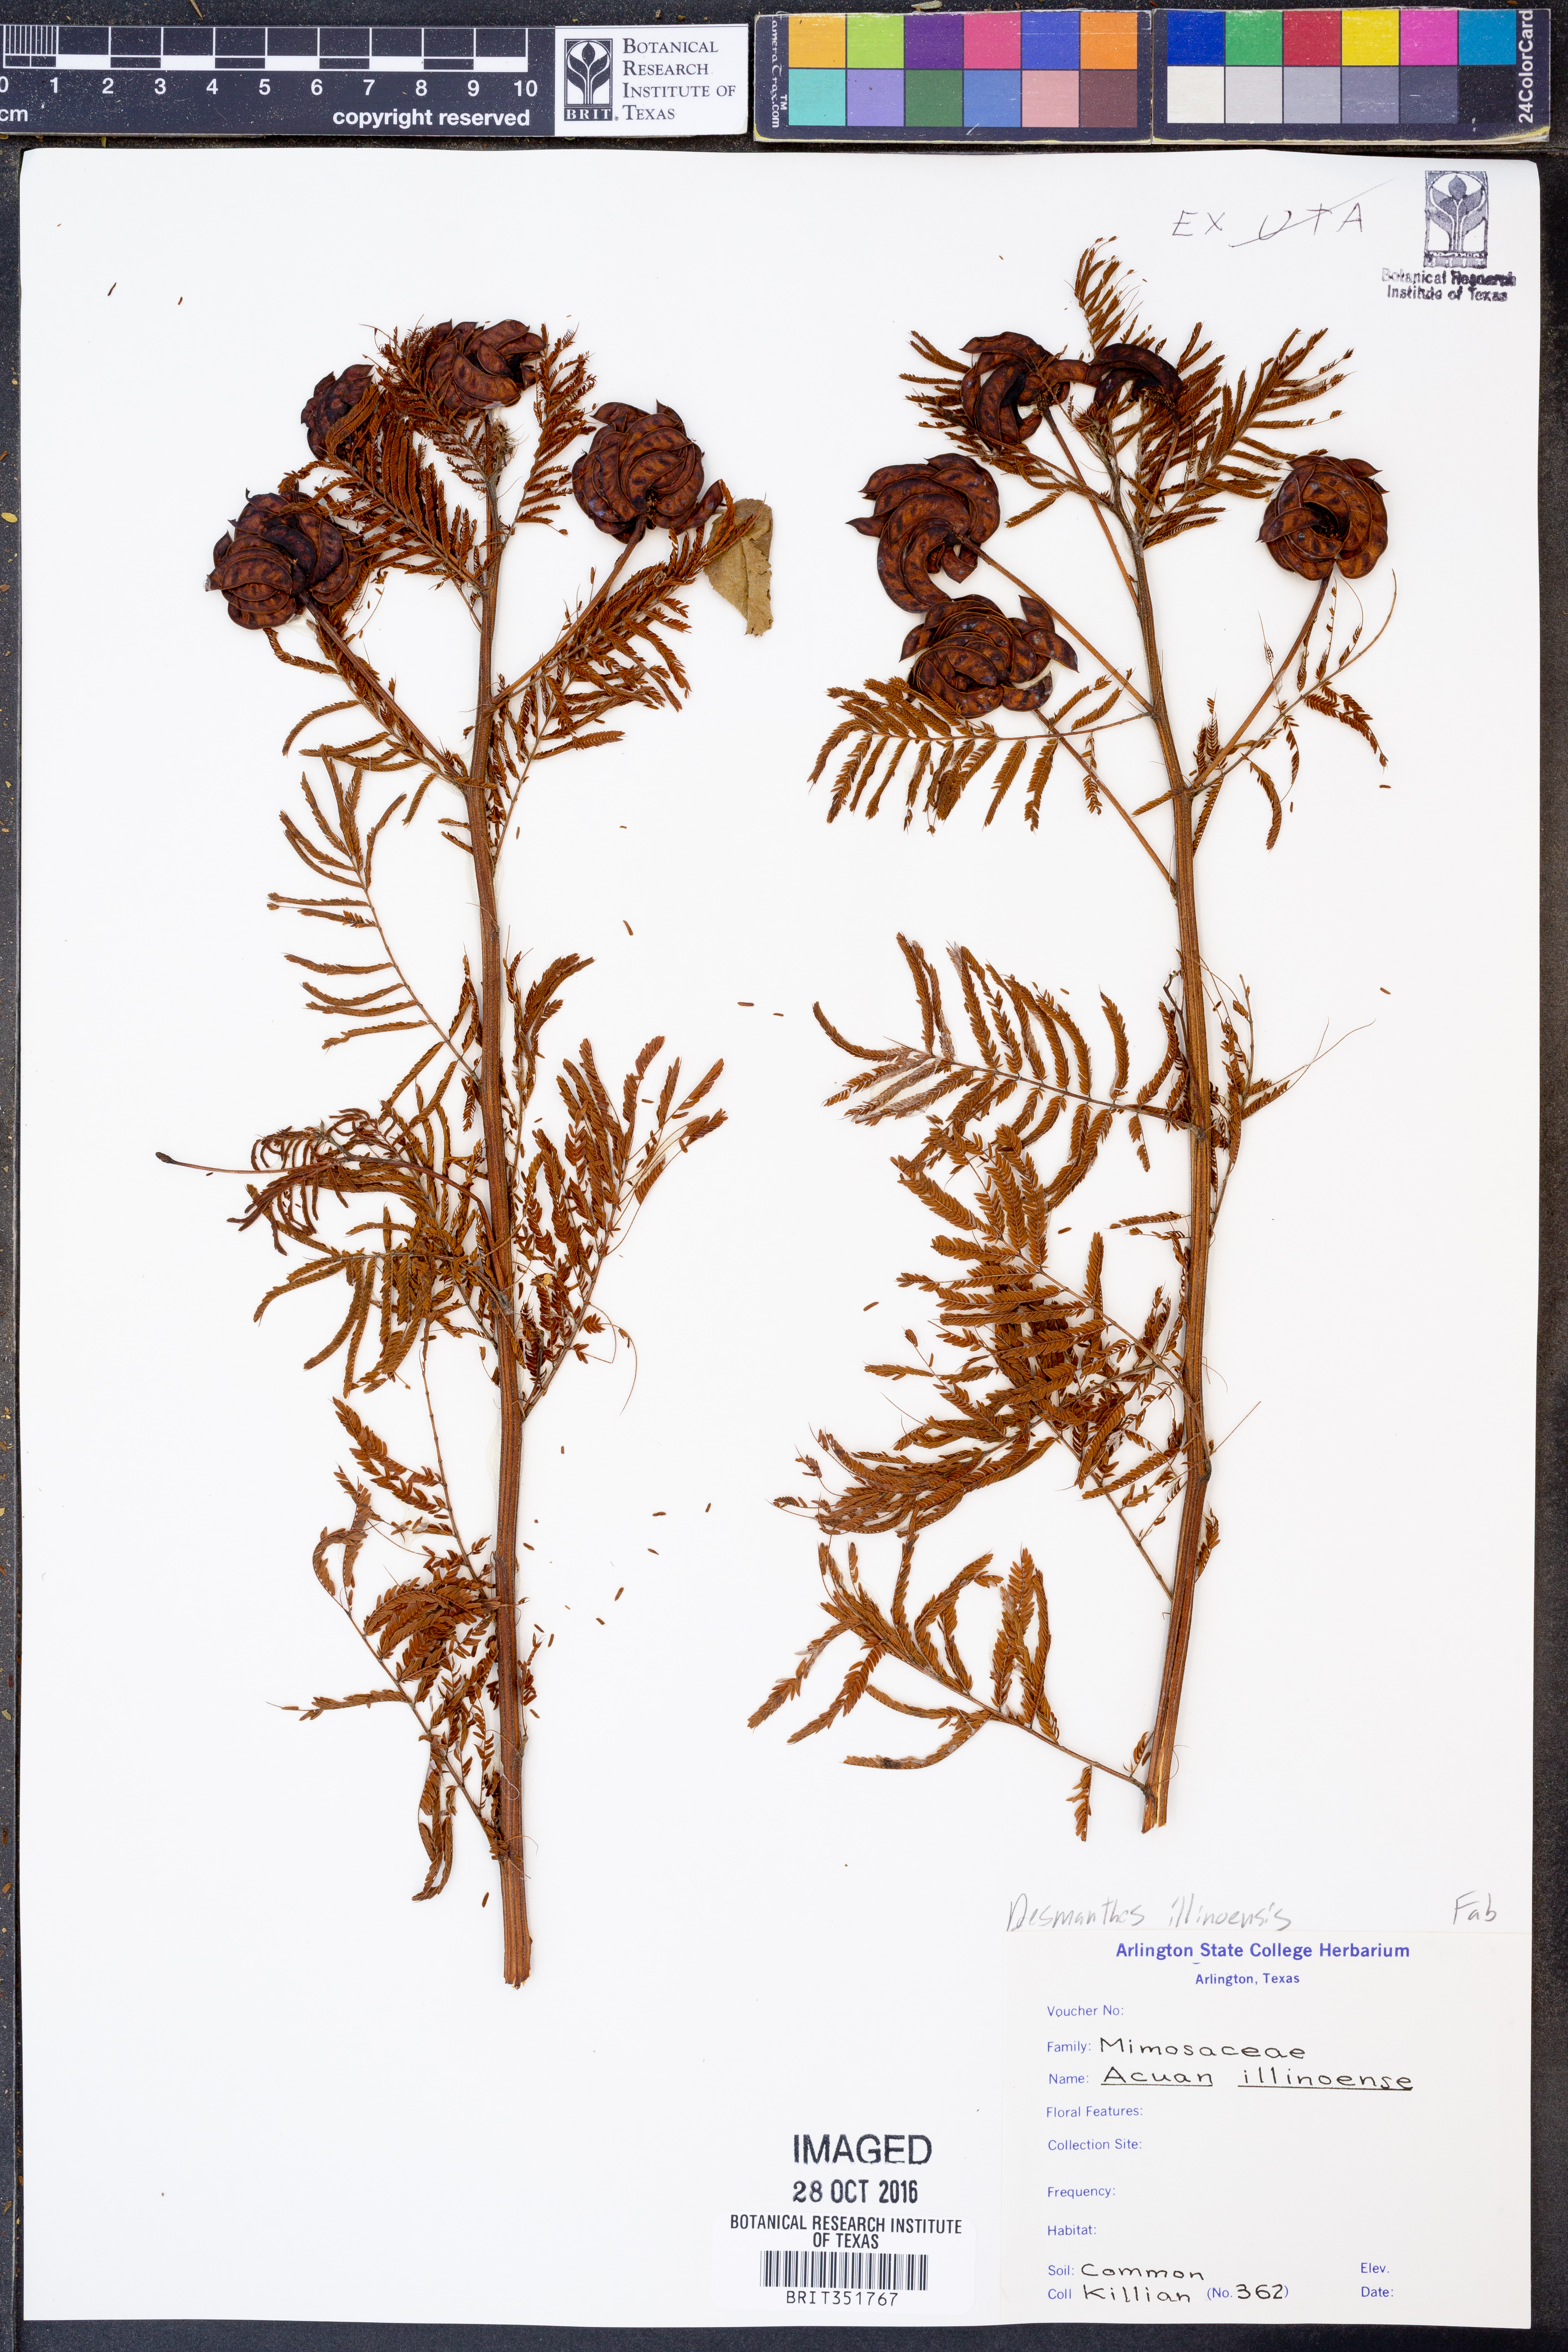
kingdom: Plantae
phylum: Tracheophyta
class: Magnoliopsida
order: Fabales
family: Fabaceae
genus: Desmanthus
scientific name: Desmanthus illinoensis
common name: Illinois bundle-flower
